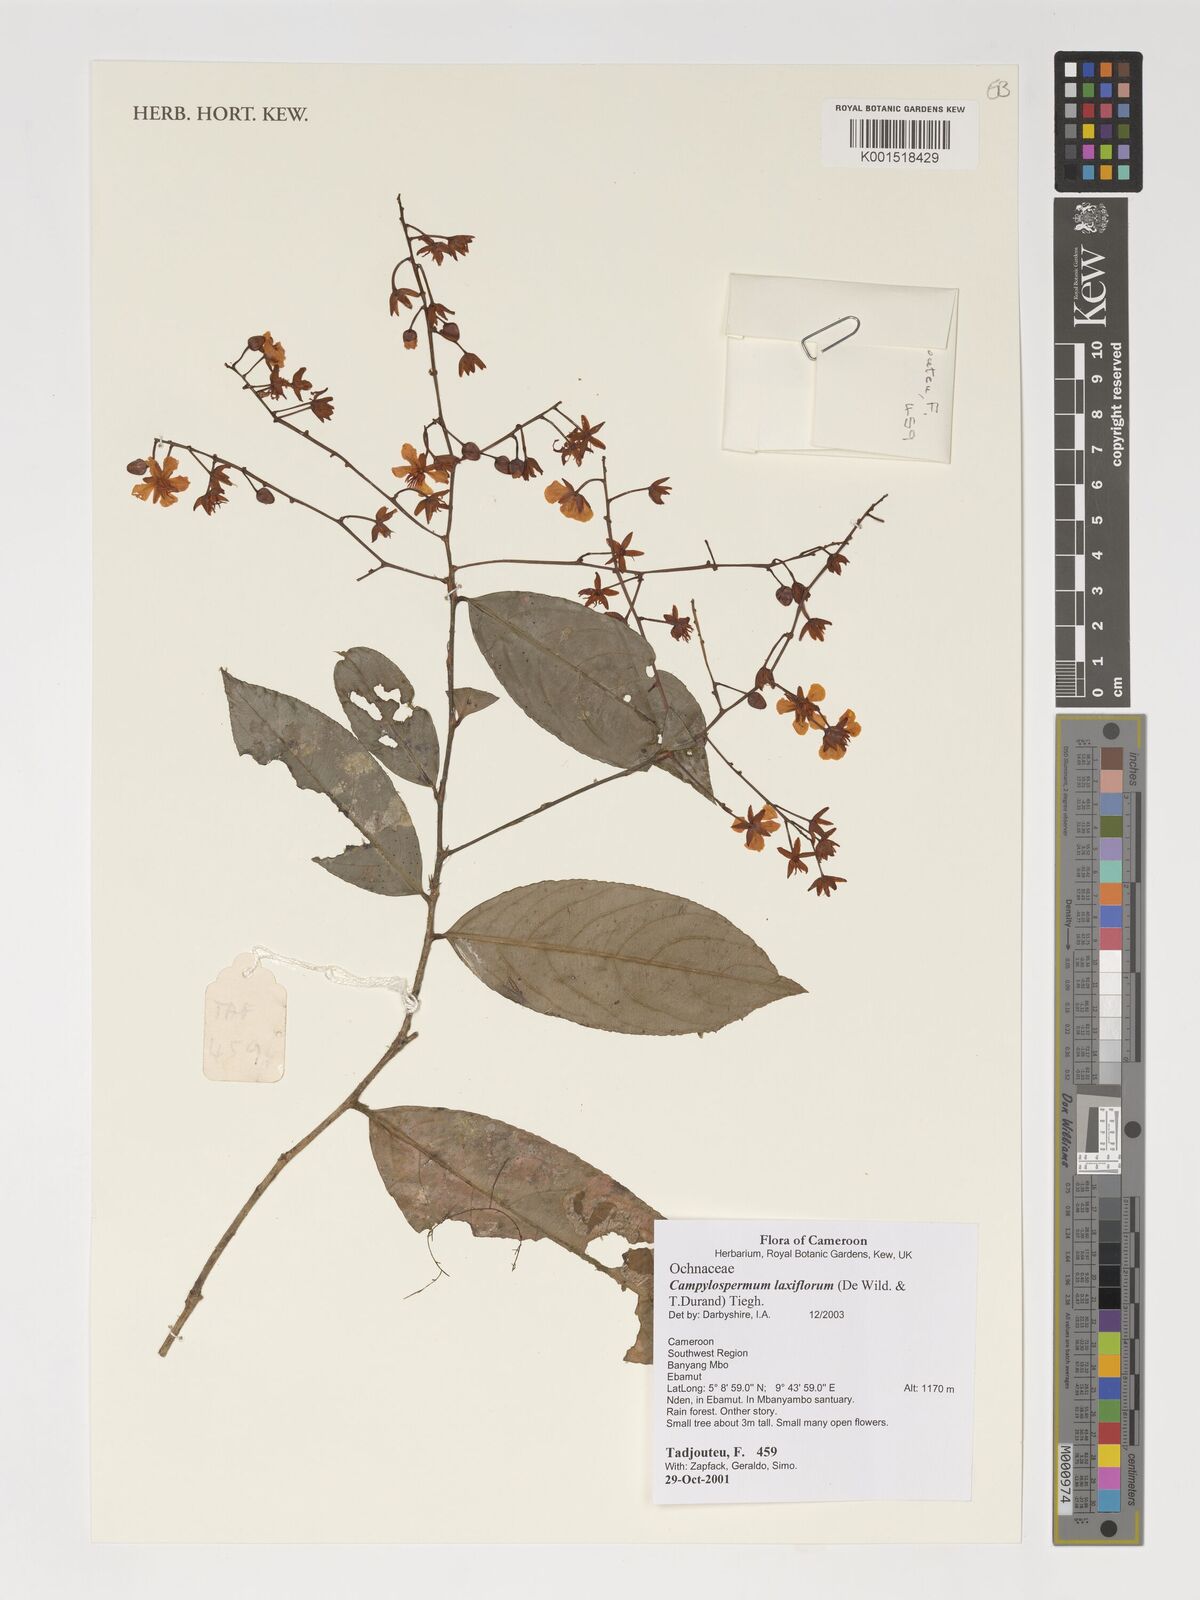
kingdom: Plantae
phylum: Tracheophyta
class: Magnoliopsida
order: Malpighiales
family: Ochnaceae
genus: Campylospermum
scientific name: Campylospermum laxiflorum
